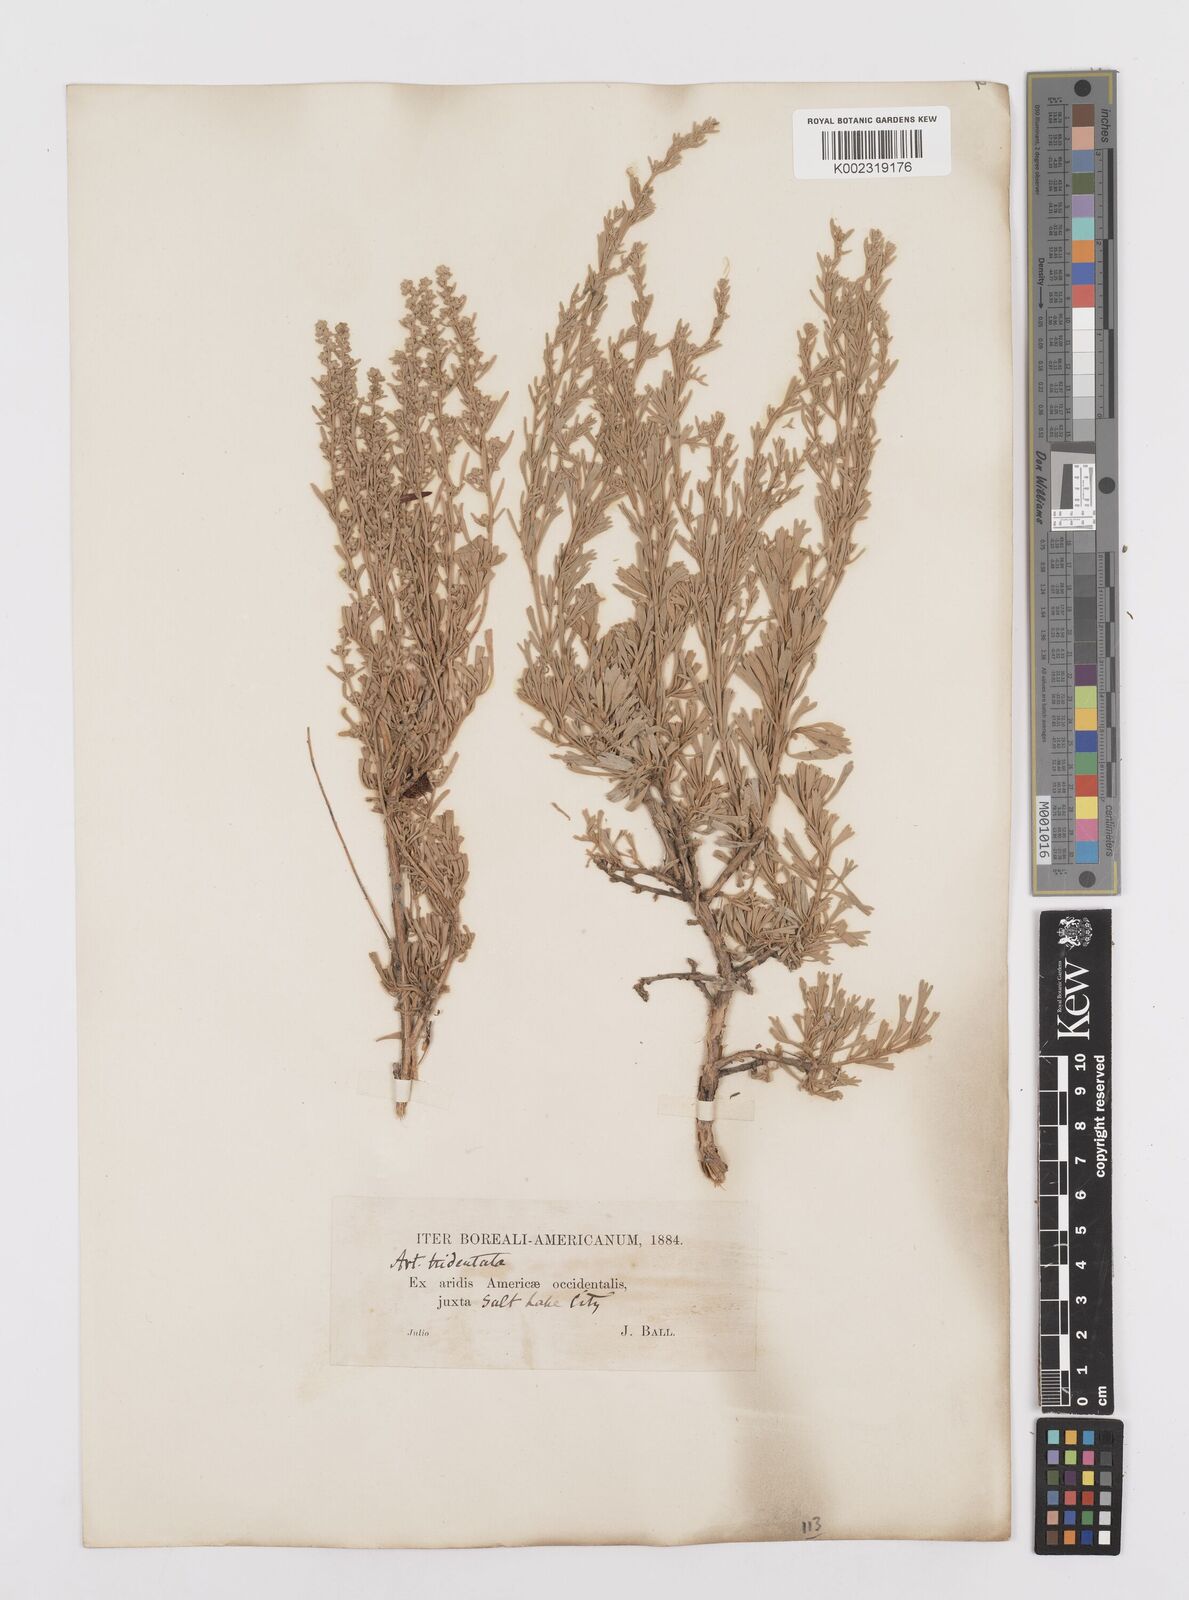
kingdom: Plantae
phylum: Tracheophyta
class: Magnoliopsida
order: Asterales
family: Asteraceae
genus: Artemisia
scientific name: Artemisia tridentata
